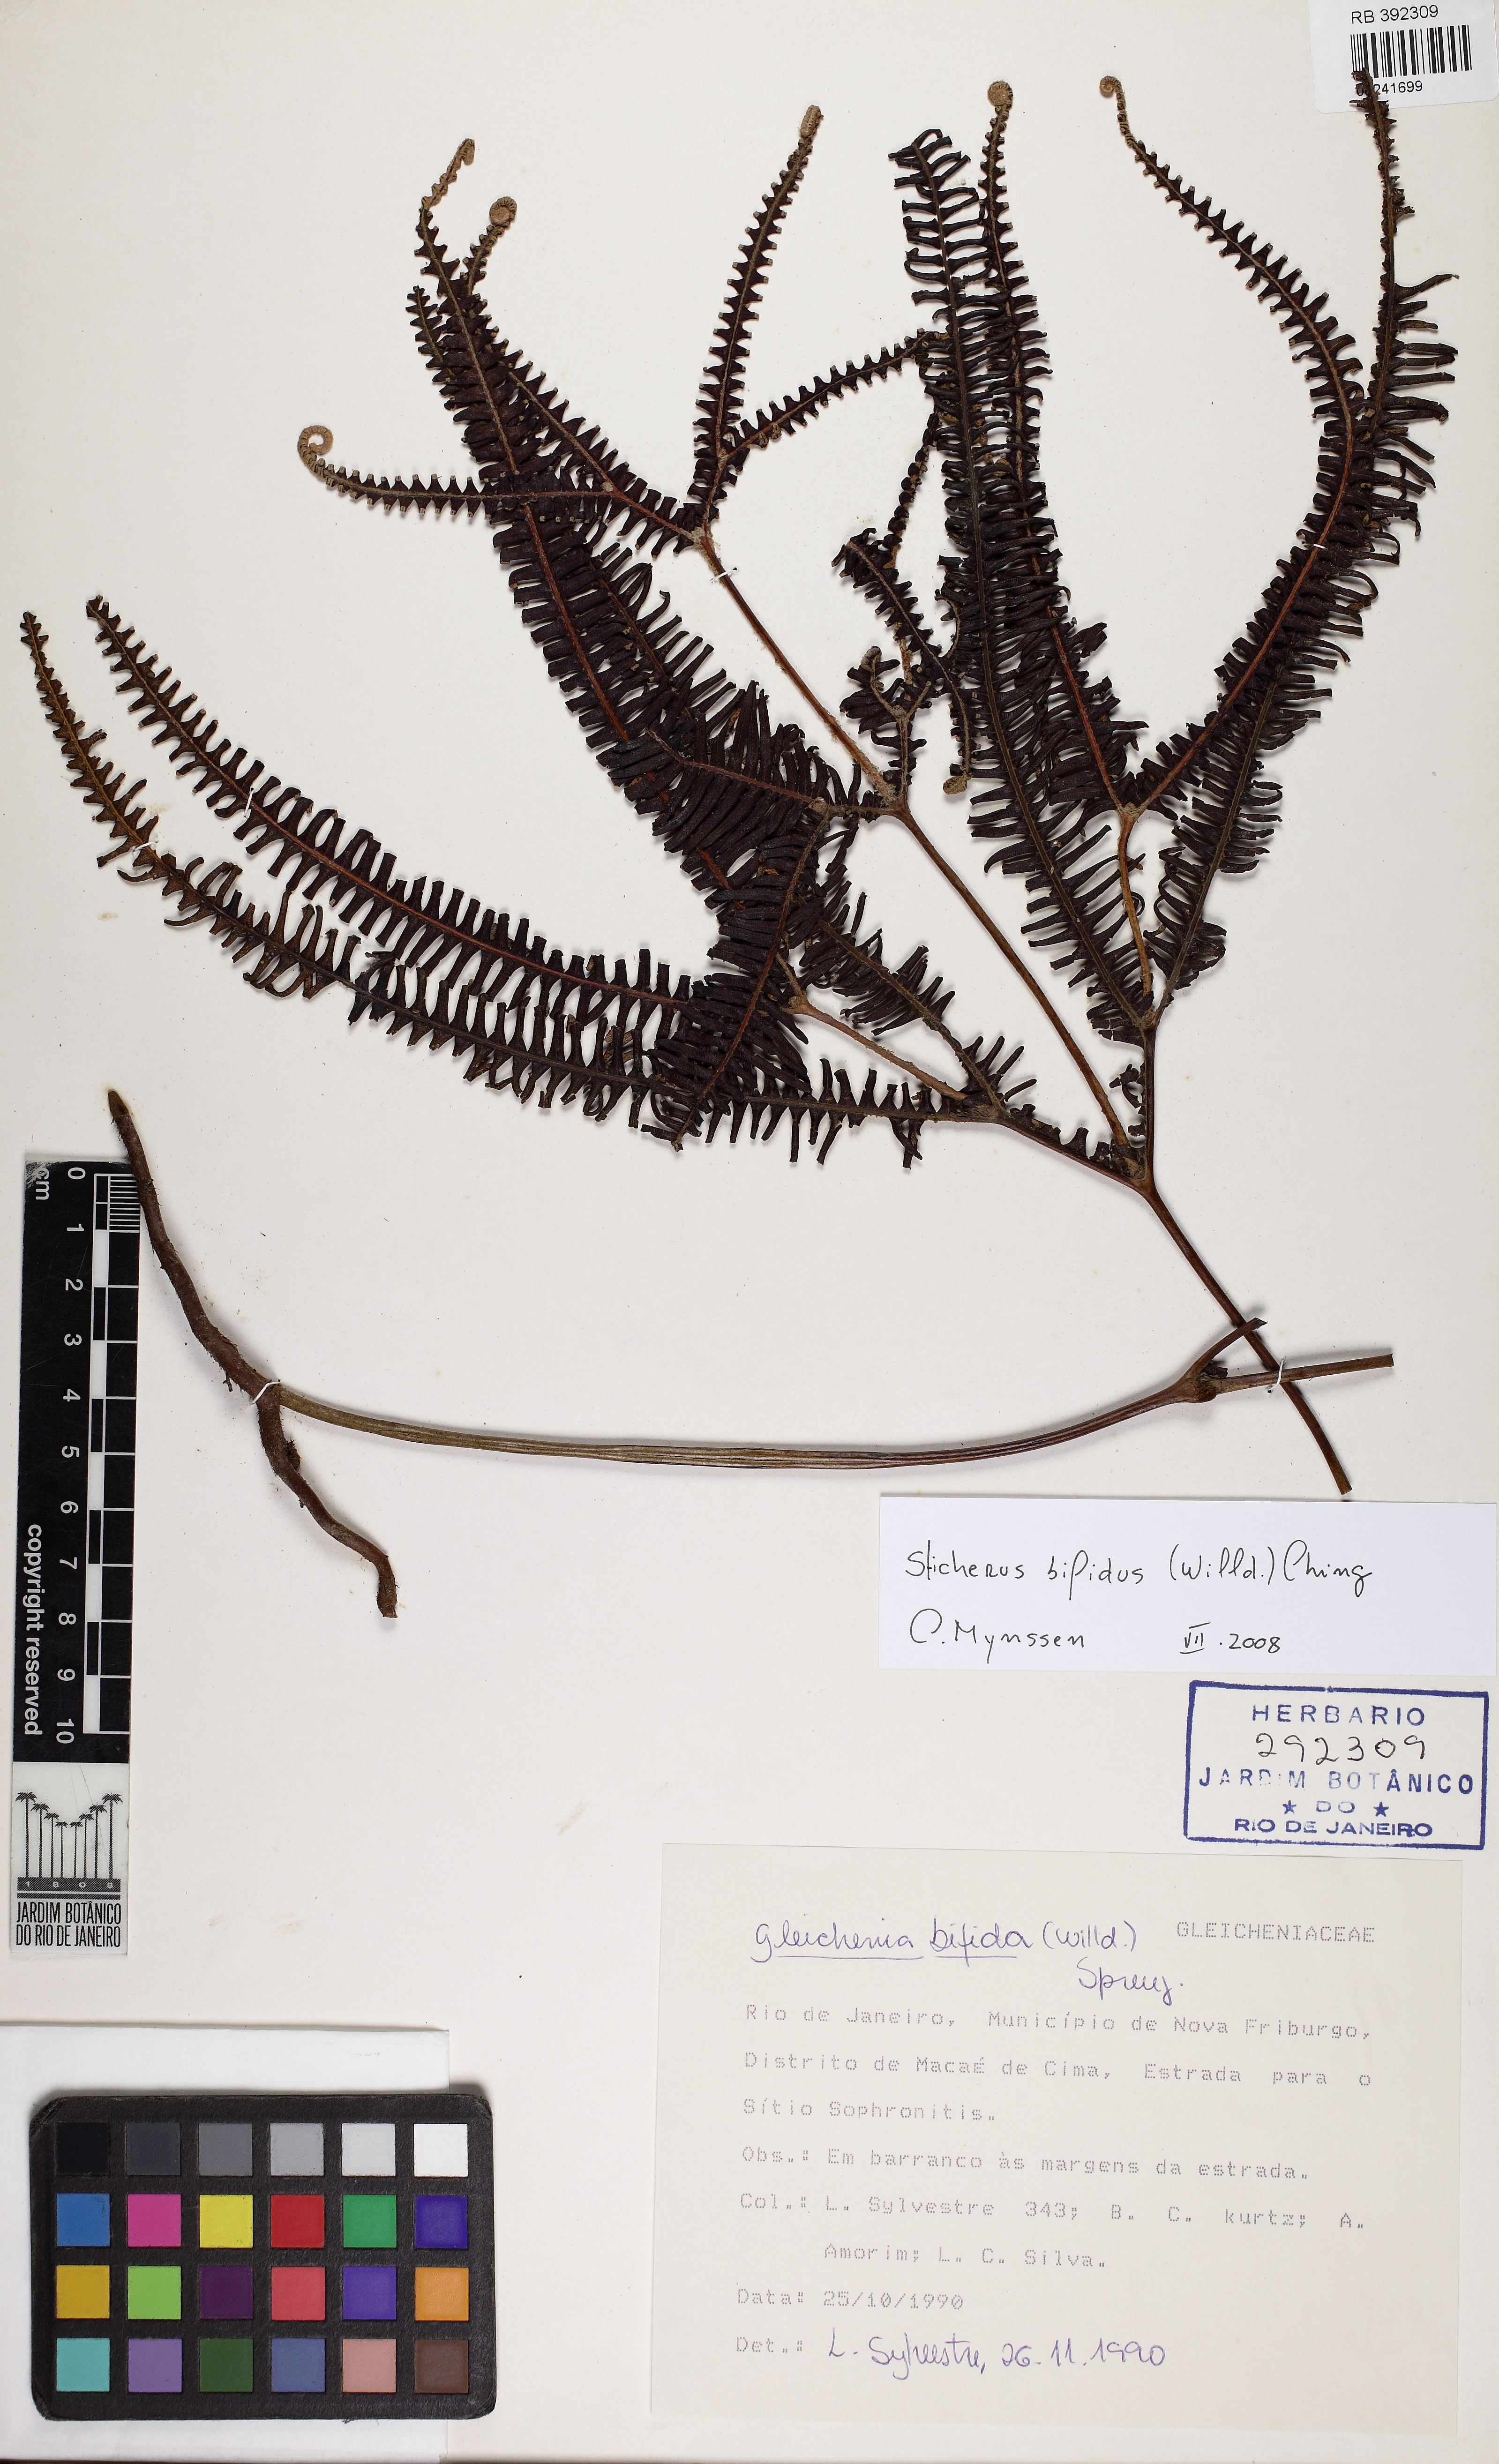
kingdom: Plantae
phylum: Tracheophyta
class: Magnoliopsida
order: Myrtales
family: Melastomataceae
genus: Pleroma
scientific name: Pleroma ochypetalum
